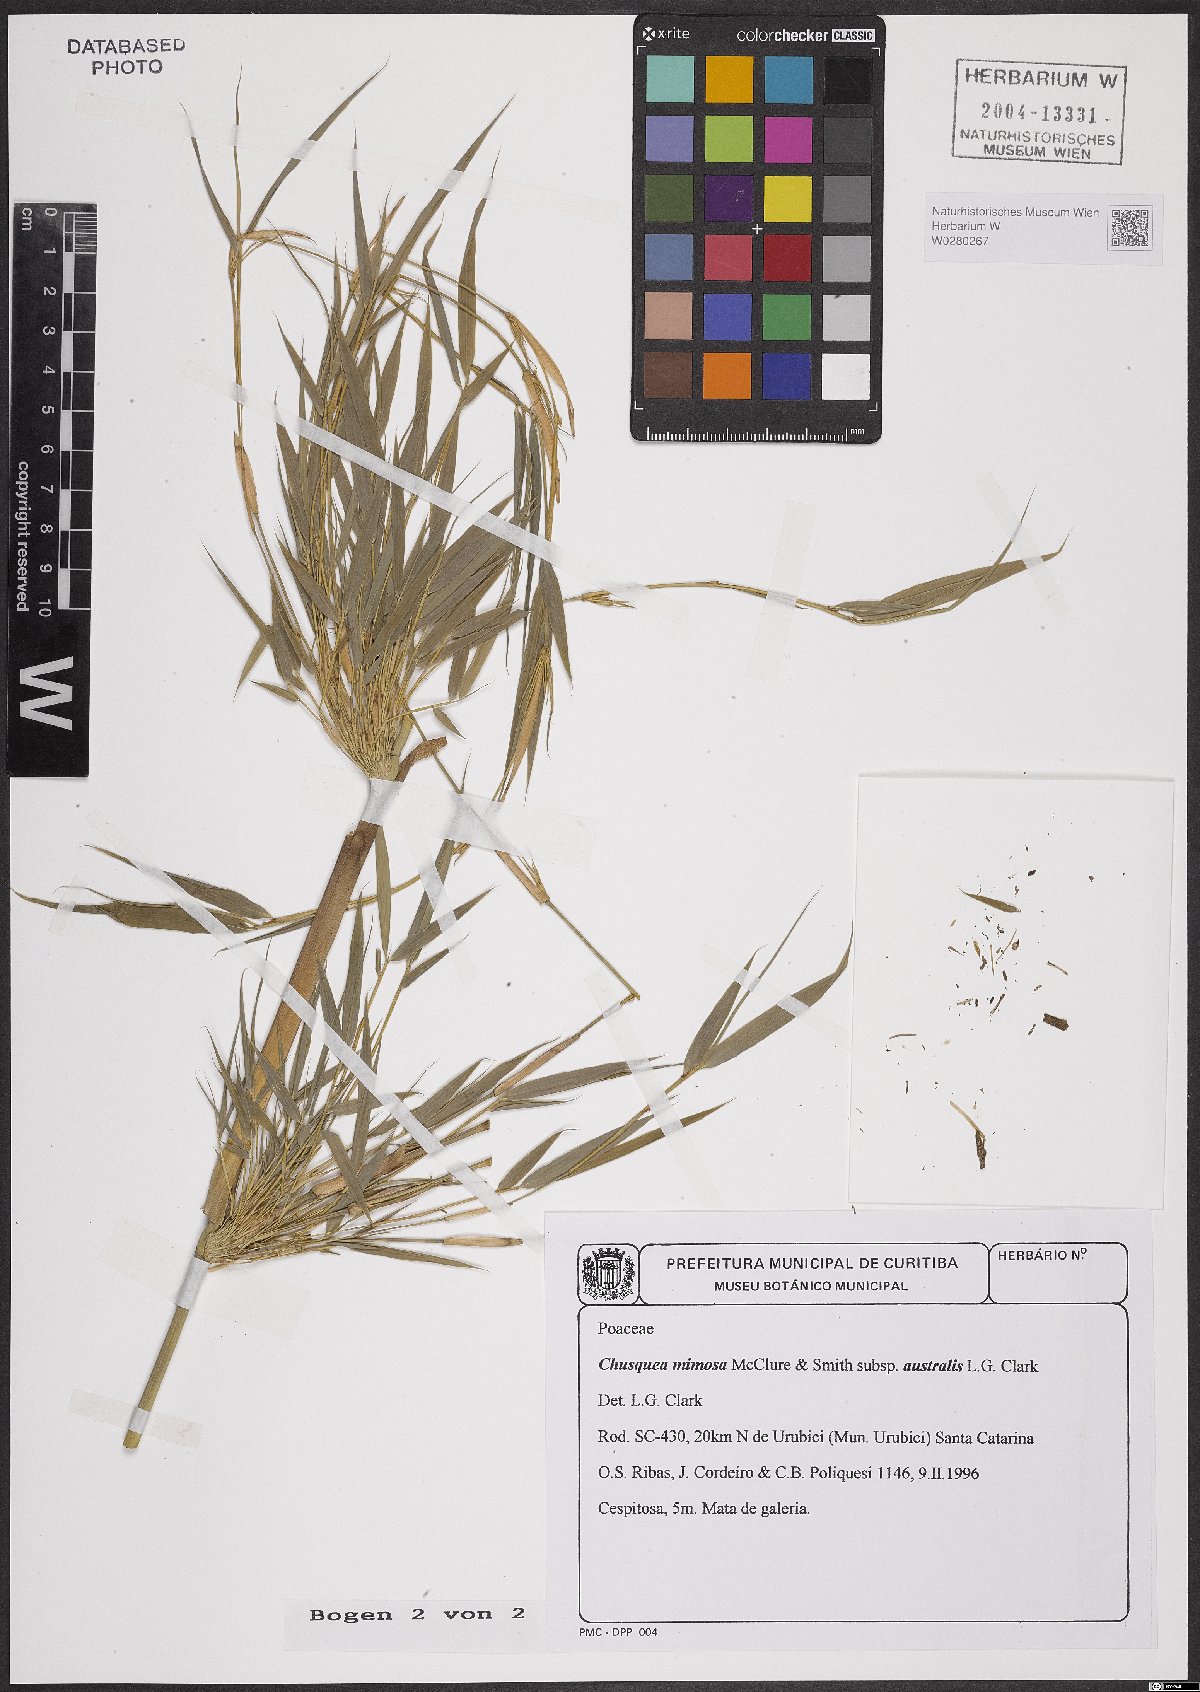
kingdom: Plantae
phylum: Tracheophyta
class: Liliopsida
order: Poales
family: Poaceae
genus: Chusquea
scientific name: Chusquea mimosa
